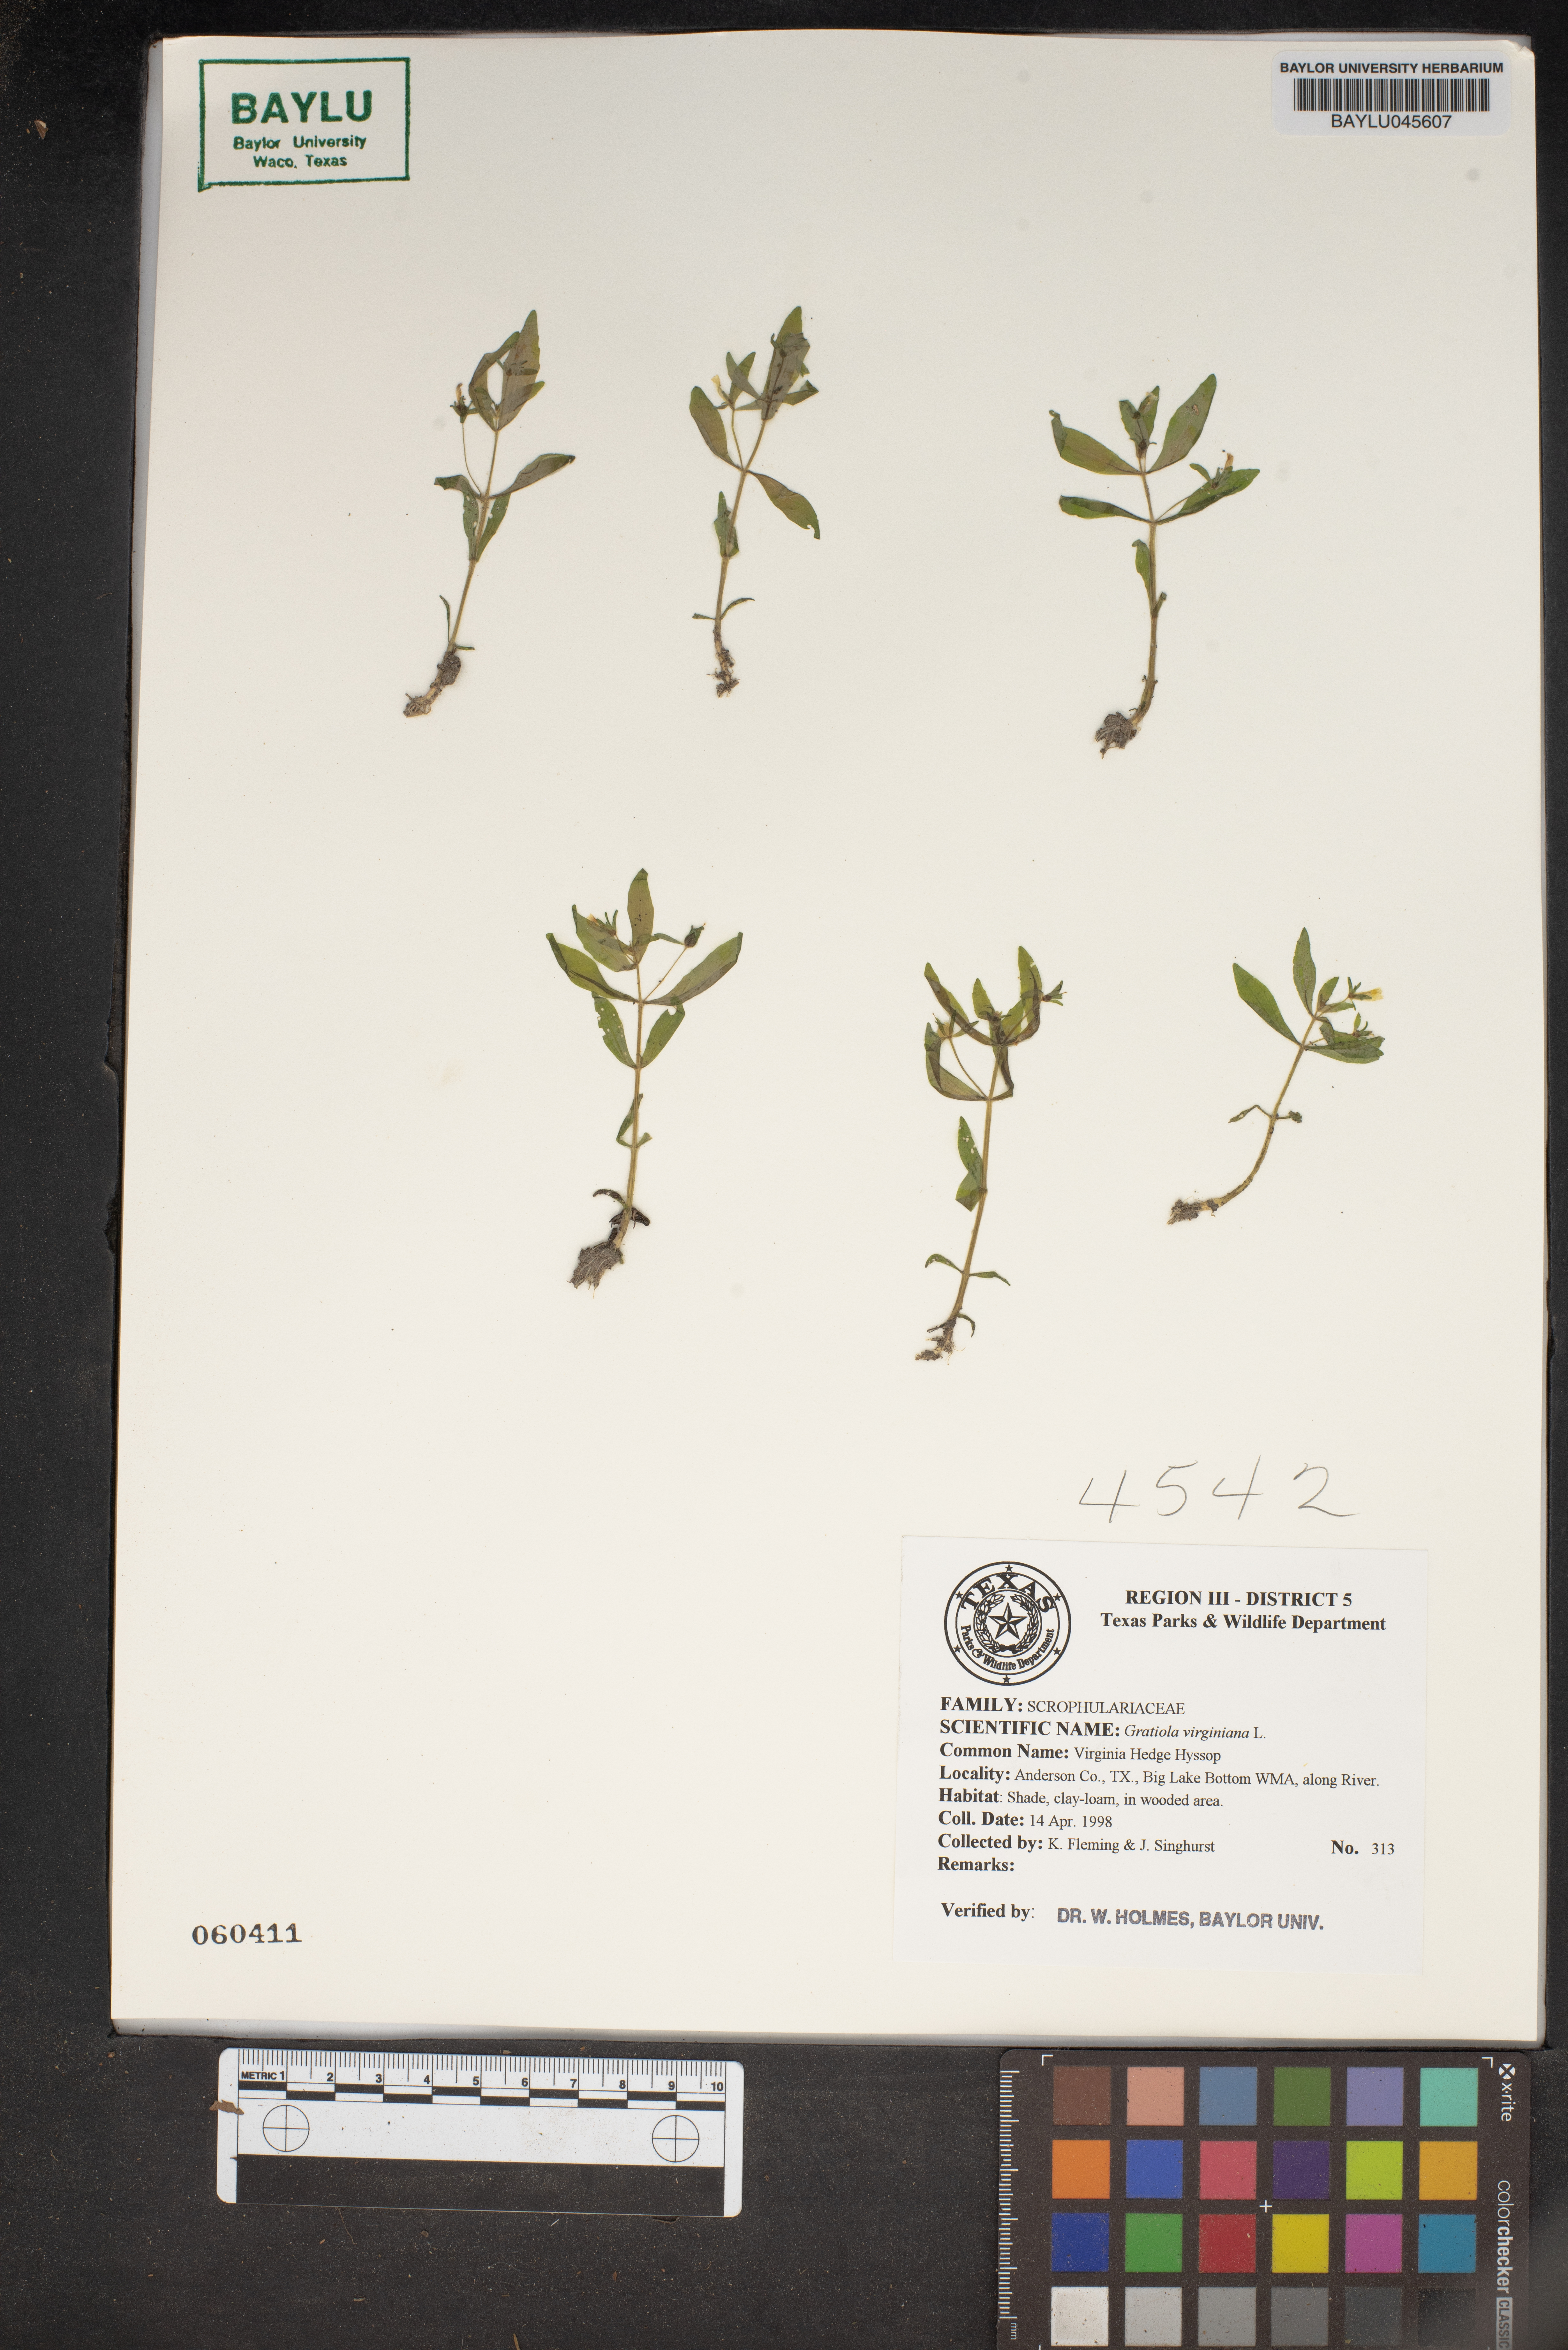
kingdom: Plantae
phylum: Tracheophyta
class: Magnoliopsida
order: Lamiales
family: Plantaginaceae
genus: Gratiola
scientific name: Gratiola virginiana
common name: Roundfruit hedgehyssop
